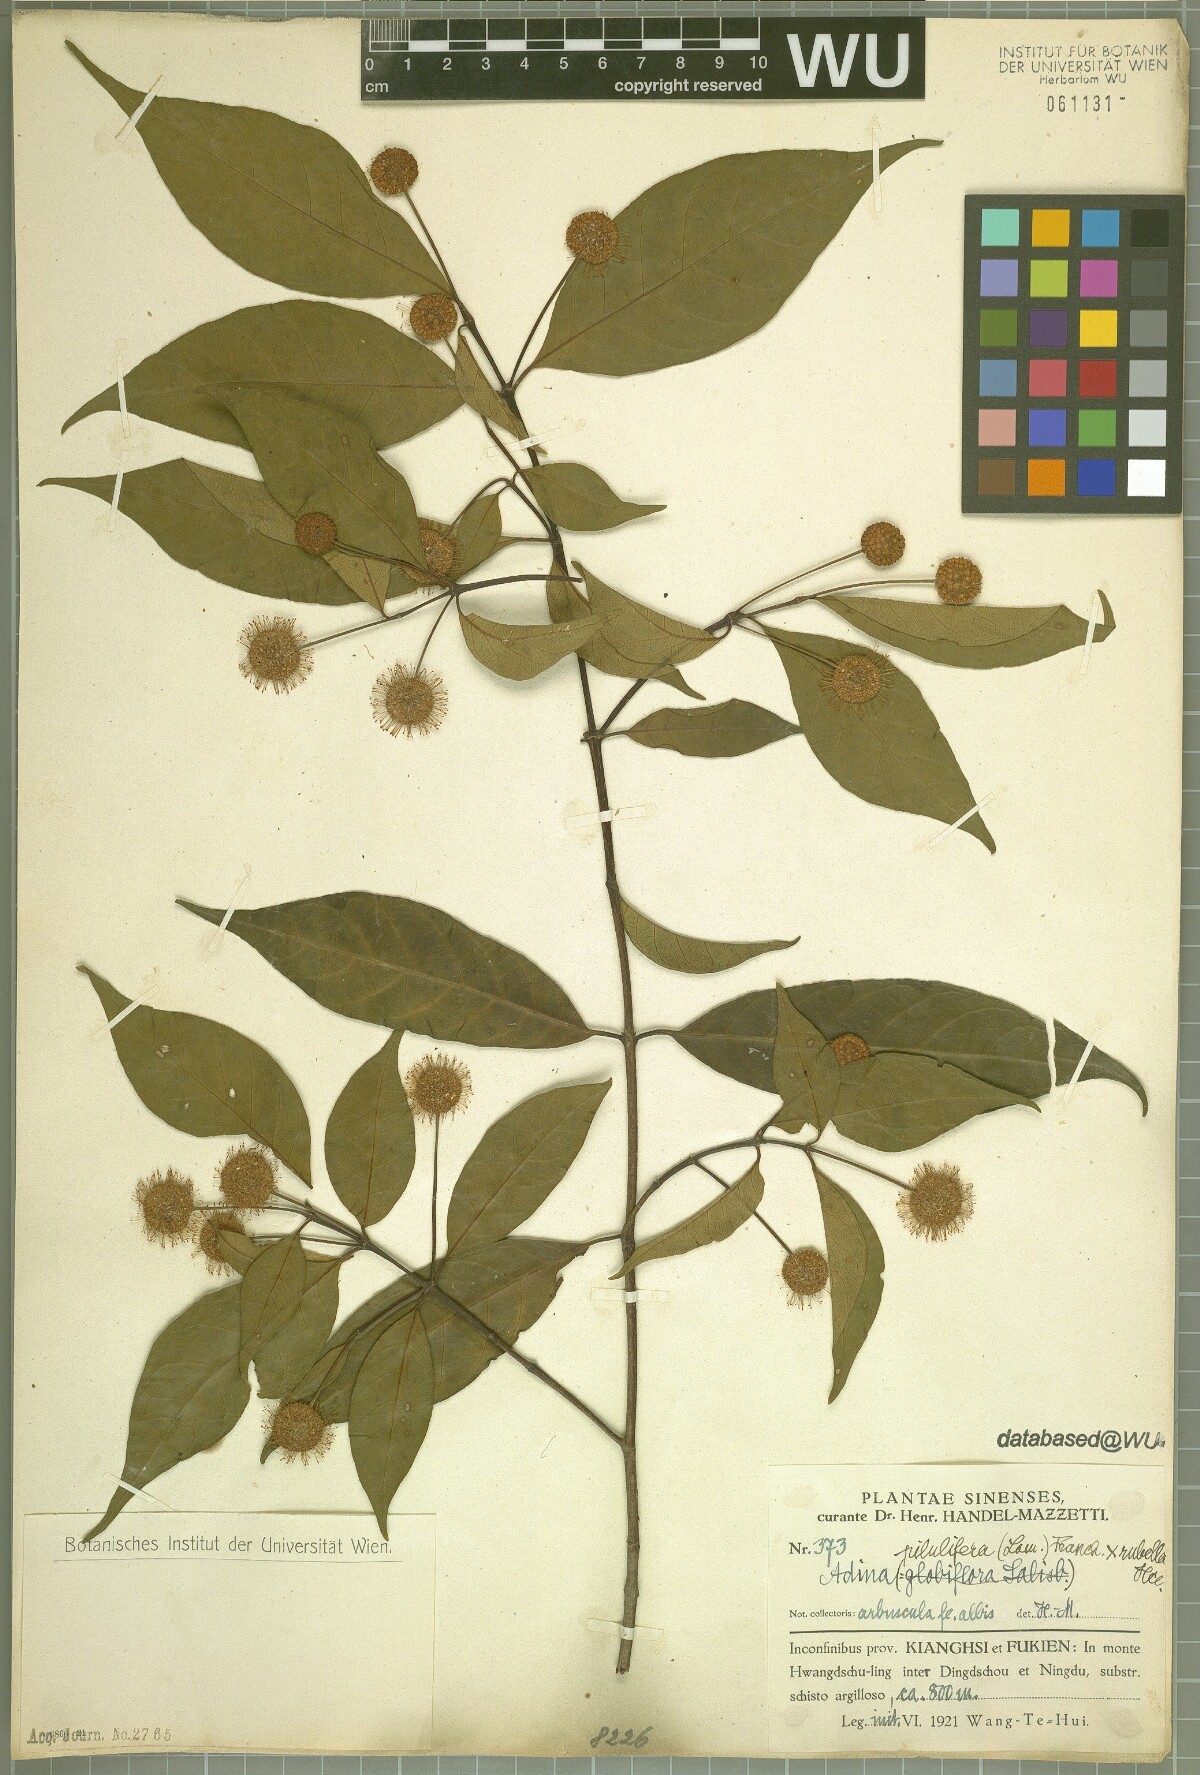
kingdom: Plantae
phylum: Tracheophyta
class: Magnoliopsida
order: Gentianales
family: Rubiaceae
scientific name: Rubiaceae
